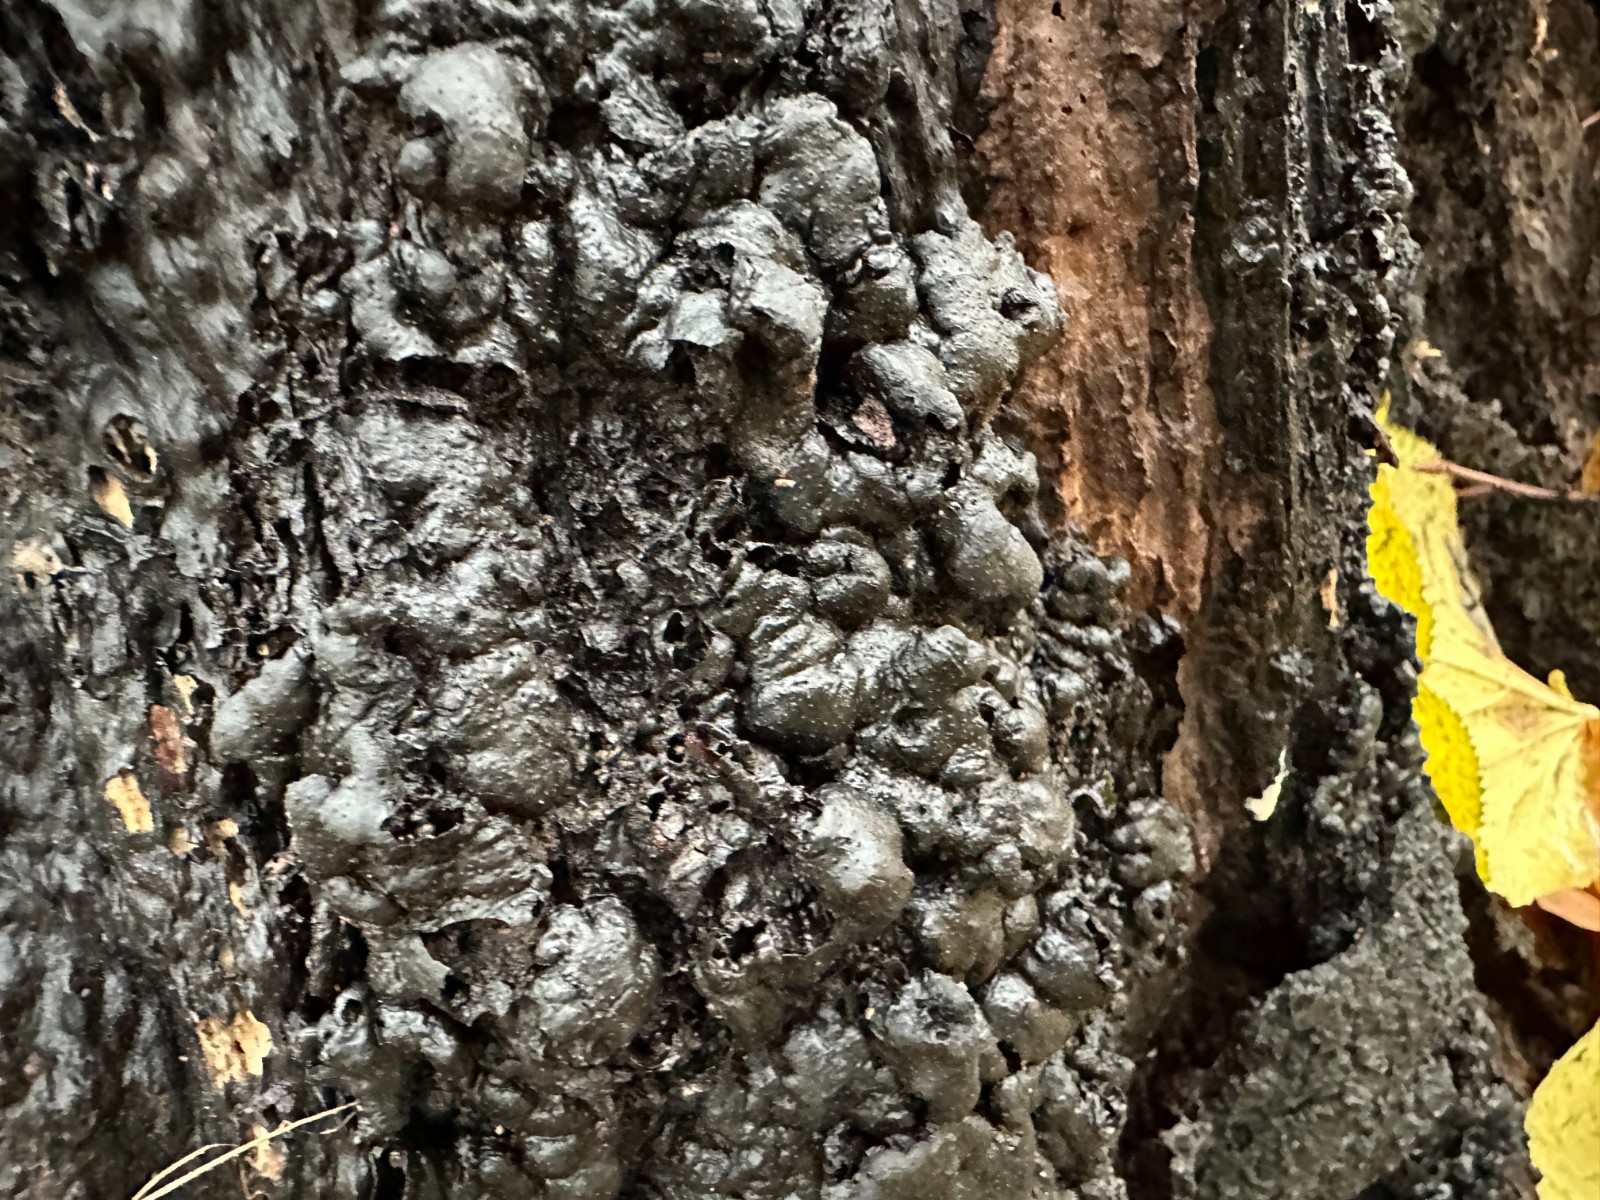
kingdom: Fungi
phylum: Ascomycota
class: Sordariomycetes
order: Xylariales
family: Xylariaceae
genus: Kretzschmaria
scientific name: Kretzschmaria deusta
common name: stor kulsvamp
